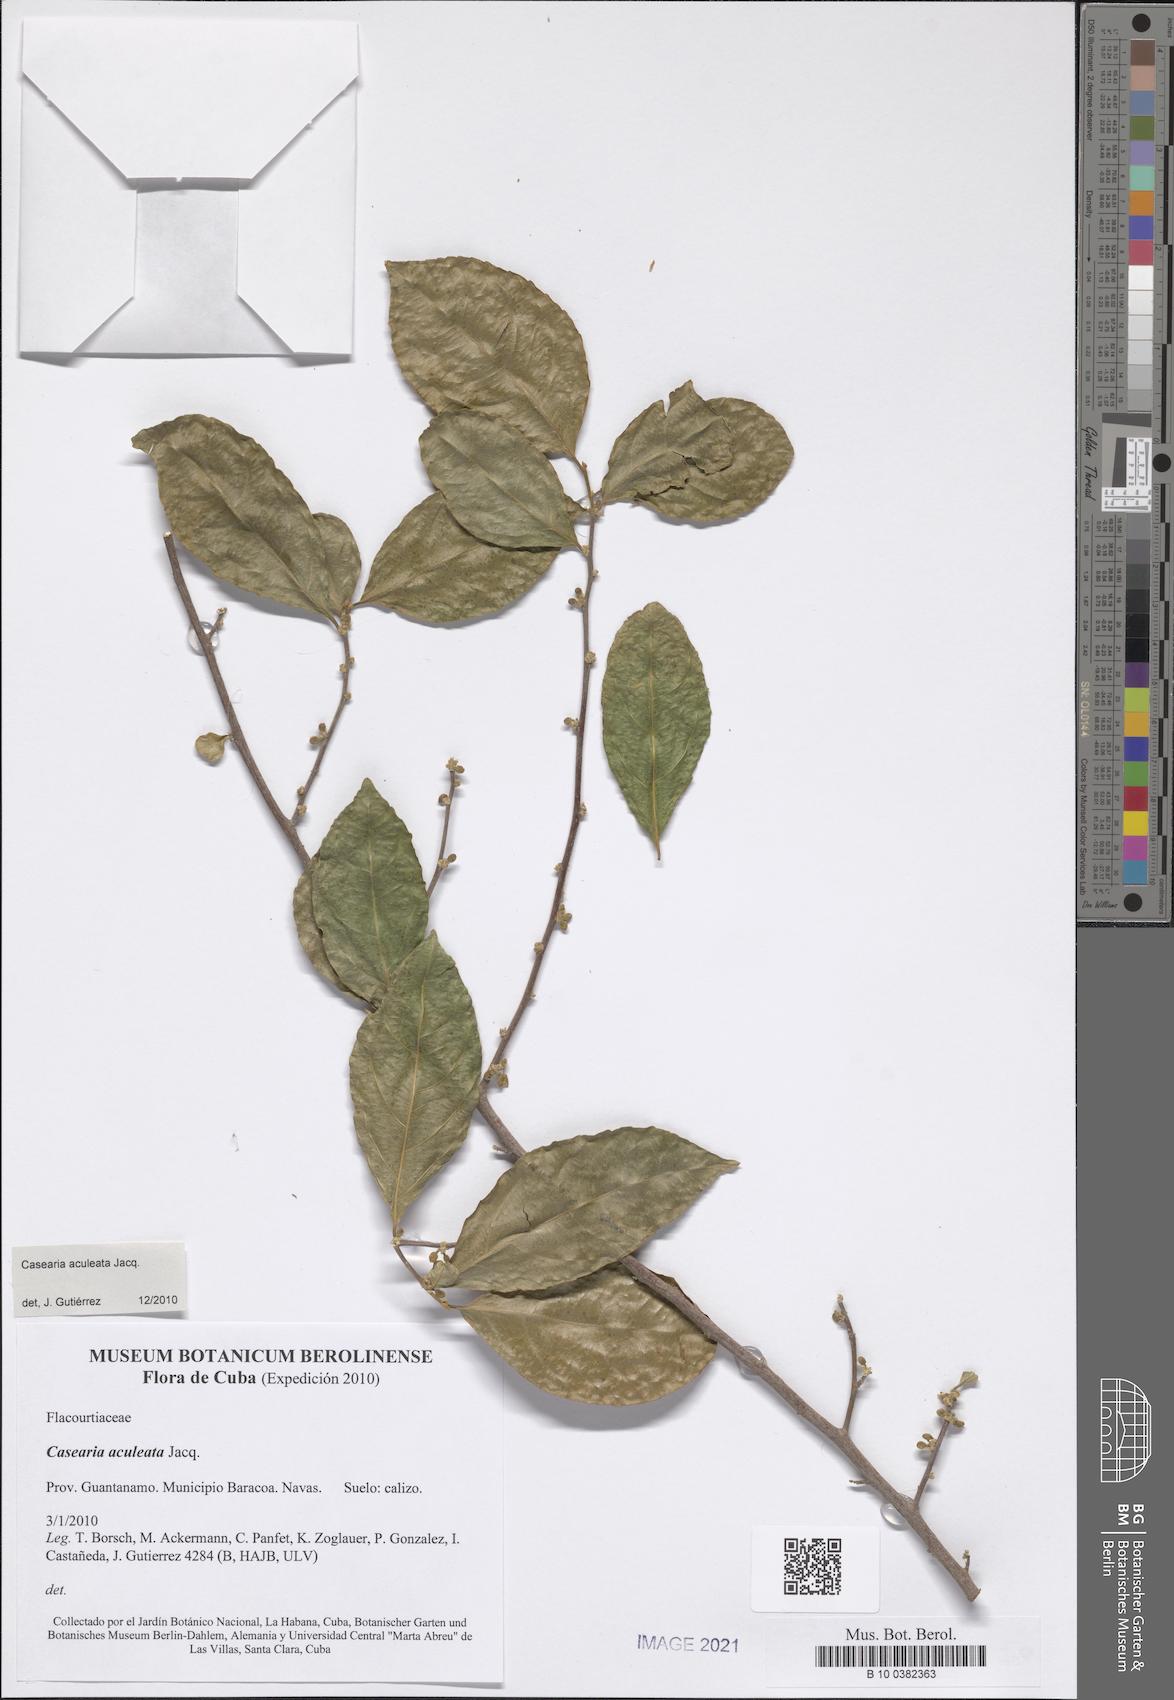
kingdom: Plantae
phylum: Tracheophyta
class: Magnoliopsida
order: Malpighiales
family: Salicaceae
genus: Casearia
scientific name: Casearia aculeata
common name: Cockspur
